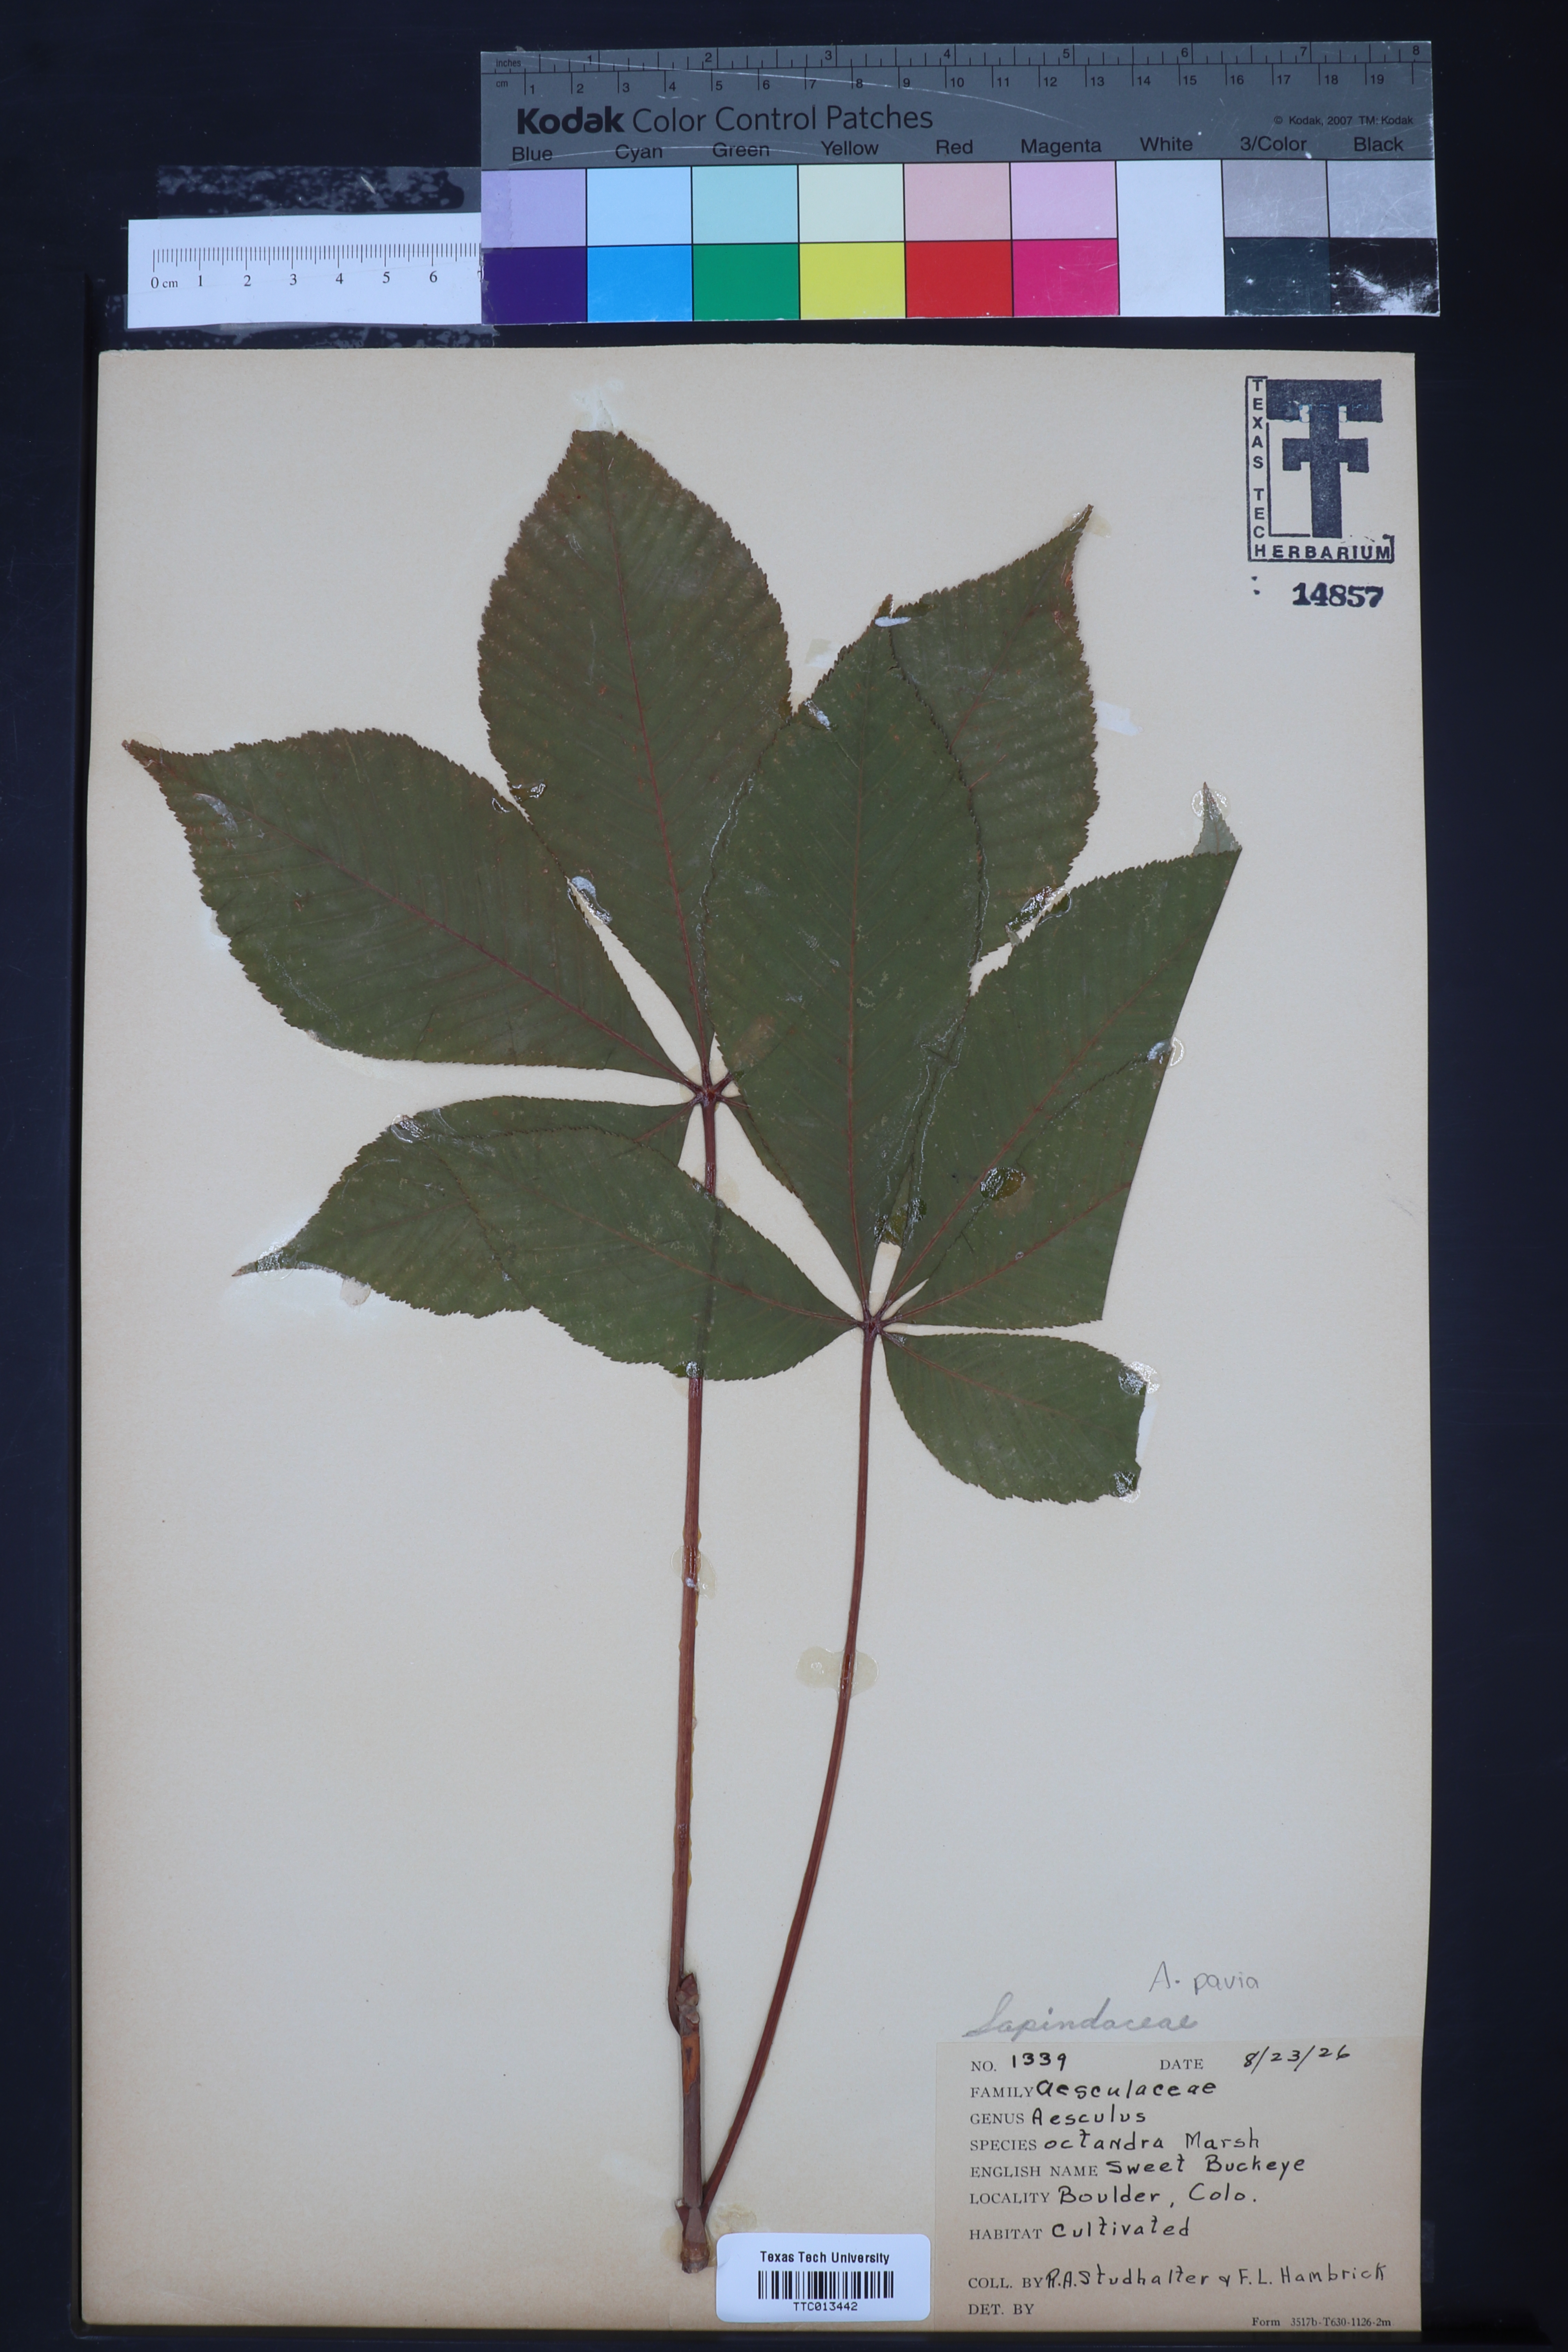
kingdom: Plantae
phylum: Tracheophyta
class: Magnoliopsida
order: Sapindales
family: Sapindaceae
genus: Aesculus
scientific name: Aesculus flava
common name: Yellow buckeye
